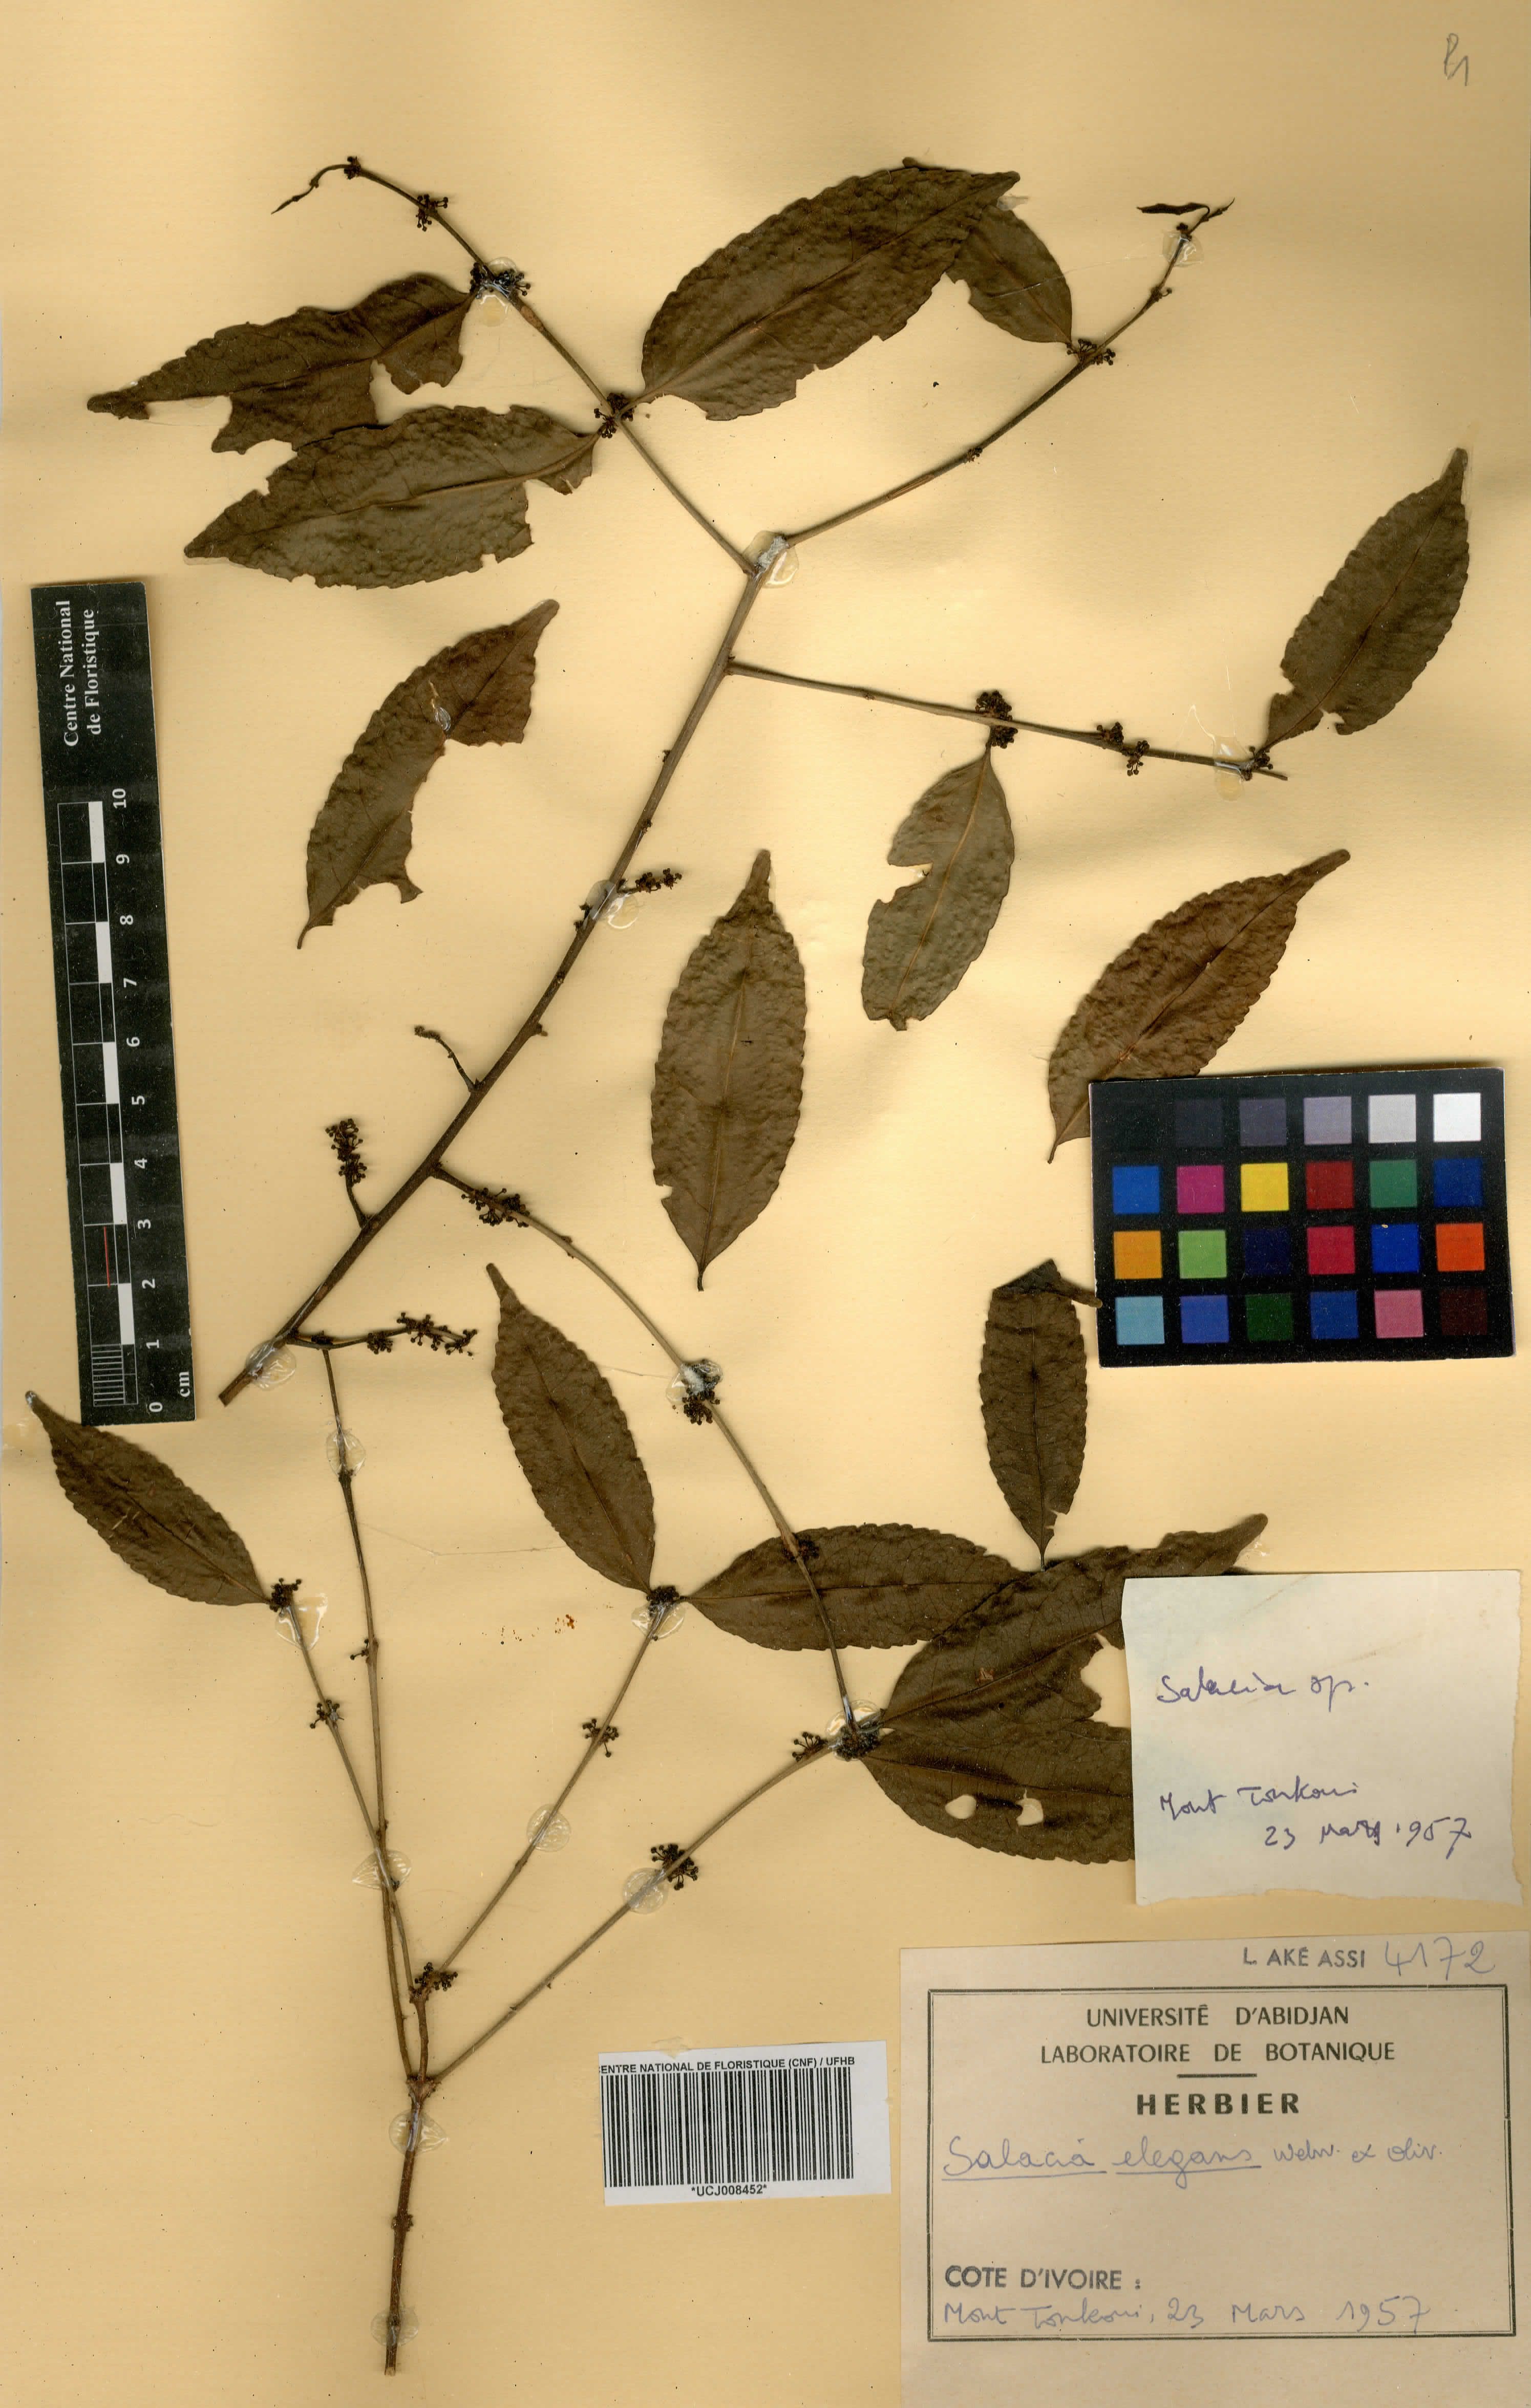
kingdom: Plantae
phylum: Tracheophyta
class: Magnoliopsida
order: Celastrales
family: Celastraceae
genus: Salacia
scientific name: Salacia elegans
